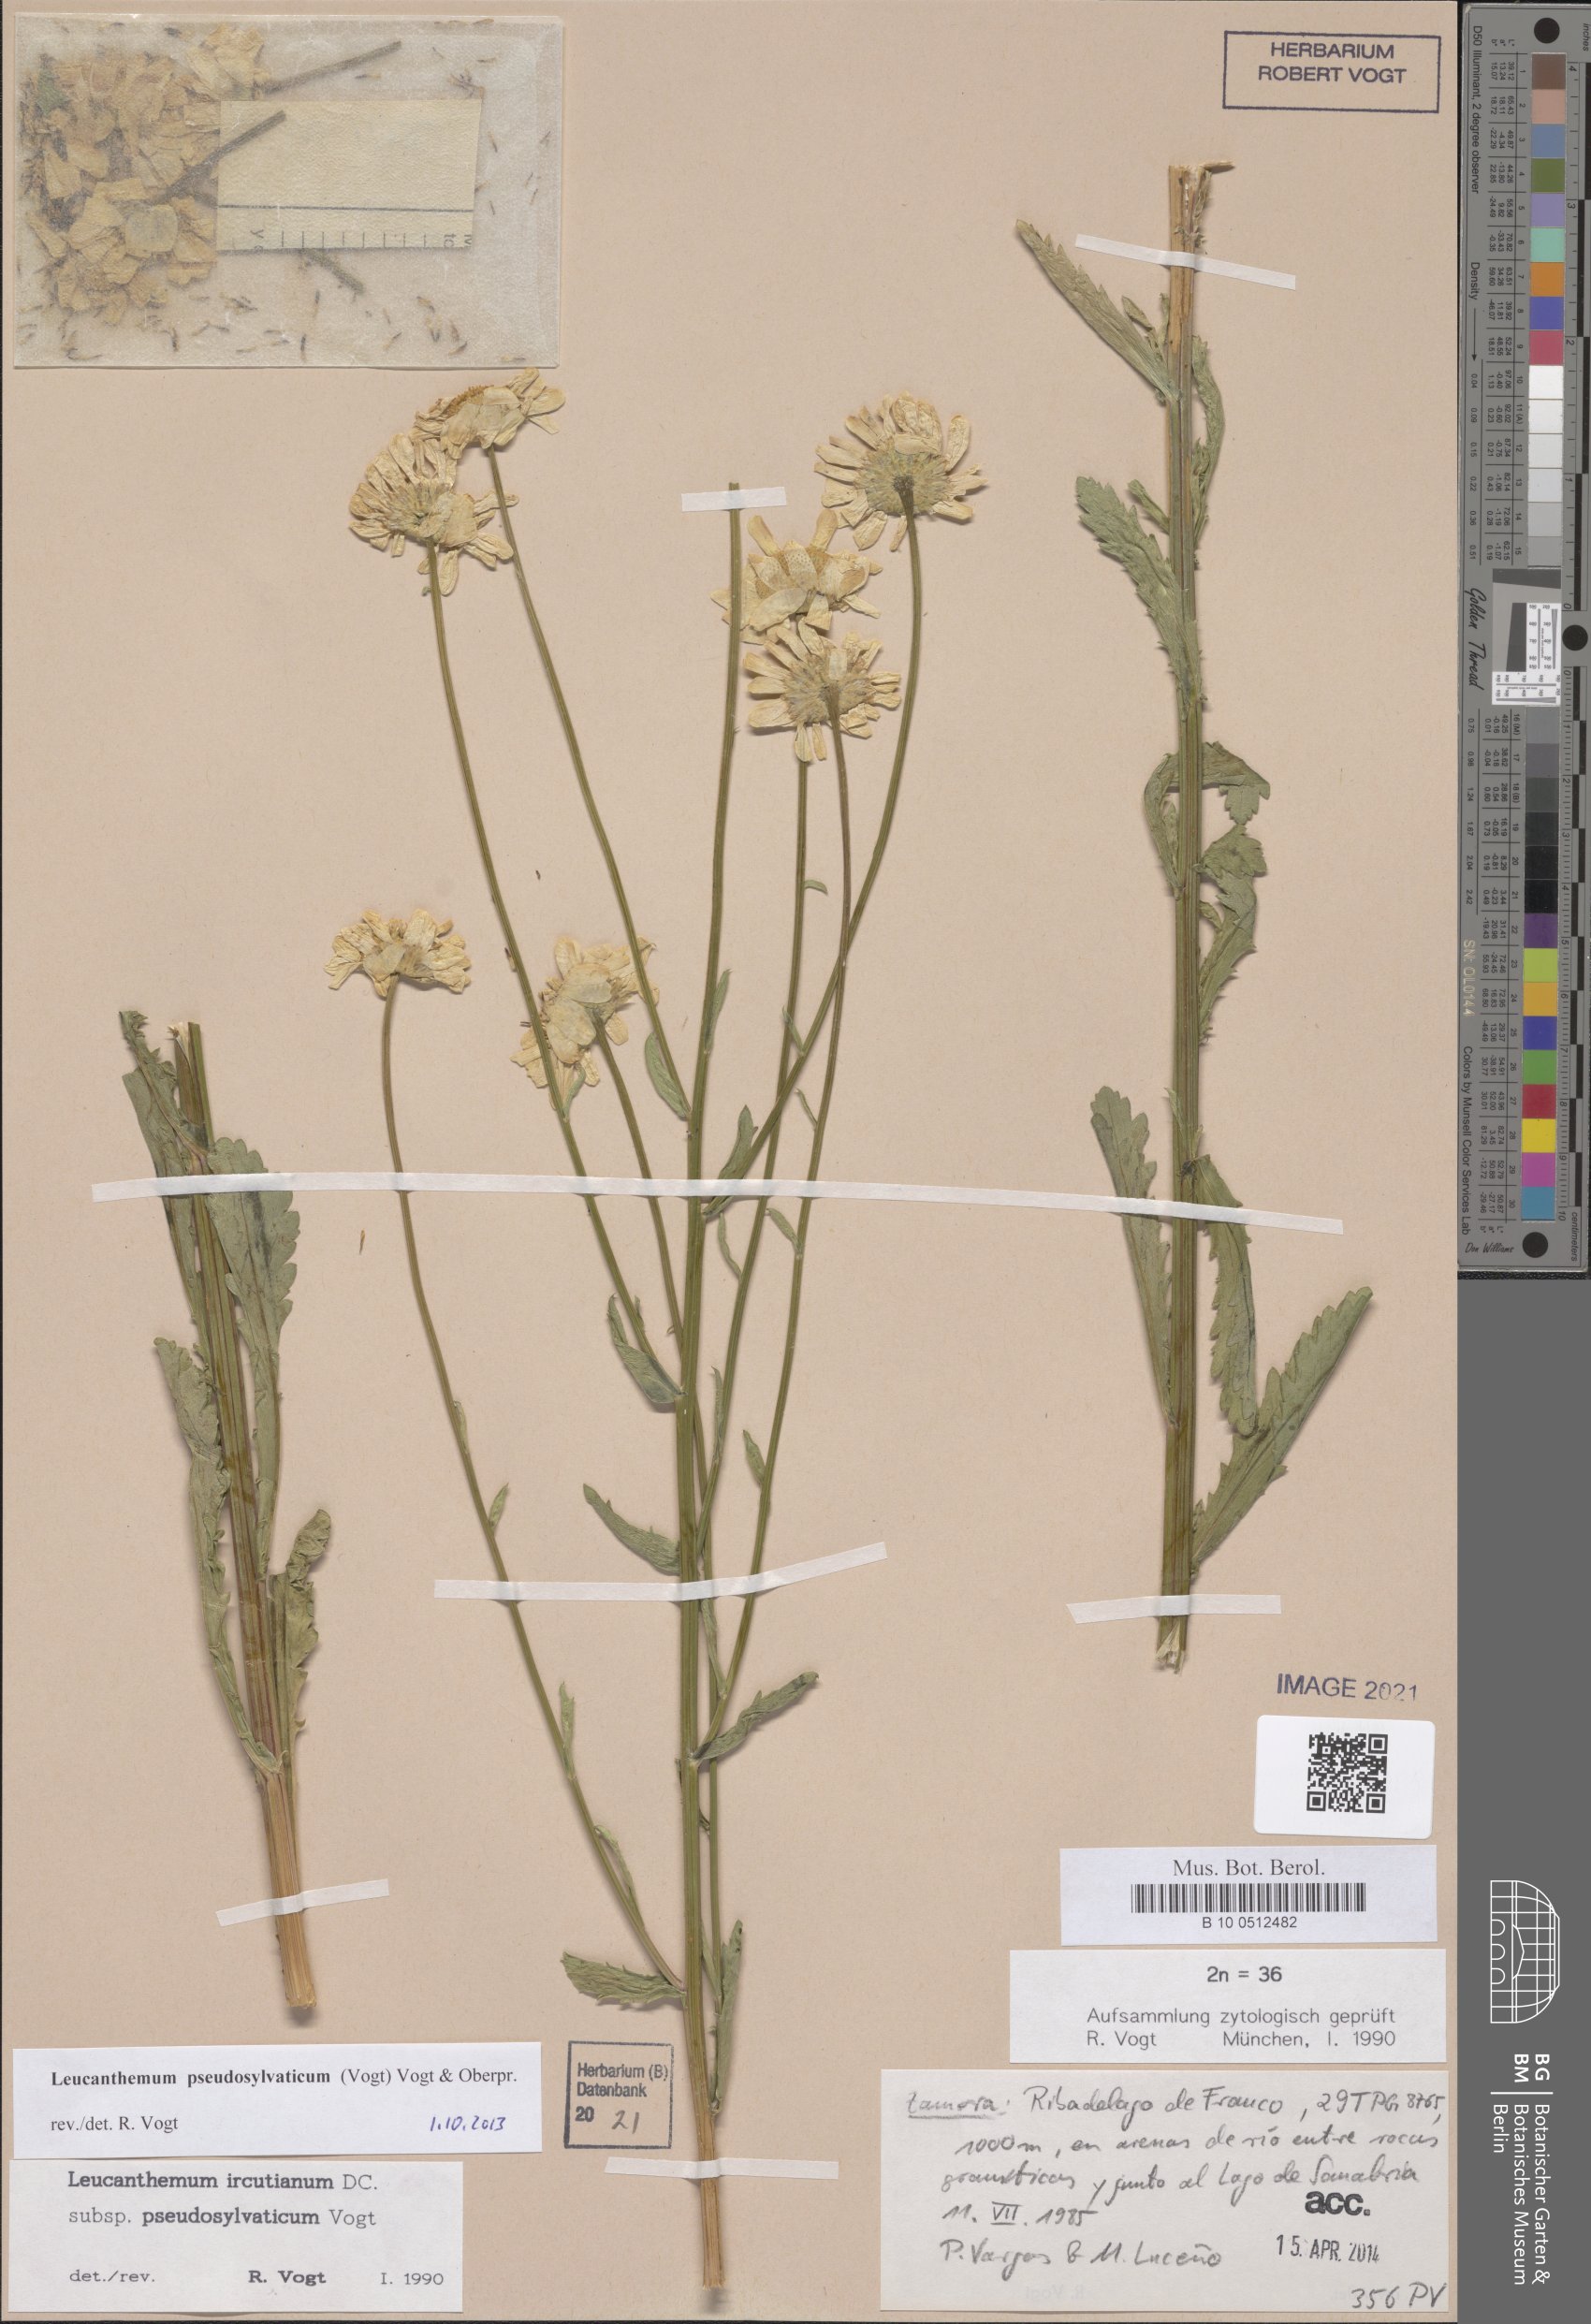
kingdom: Plantae
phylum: Tracheophyta
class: Magnoliopsida
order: Asterales
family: Asteraceae
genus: Leucanthemum
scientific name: Leucanthemum pseudosylvaticum
